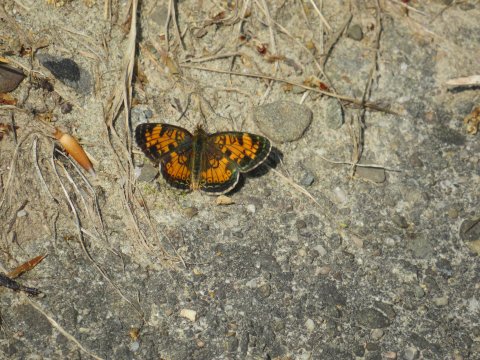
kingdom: Animalia
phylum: Arthropoda
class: Insecta
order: Lepidoptera
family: Nymphalidae
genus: Phyciodes
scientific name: Phyciodes tharos
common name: Pearl Crescent
